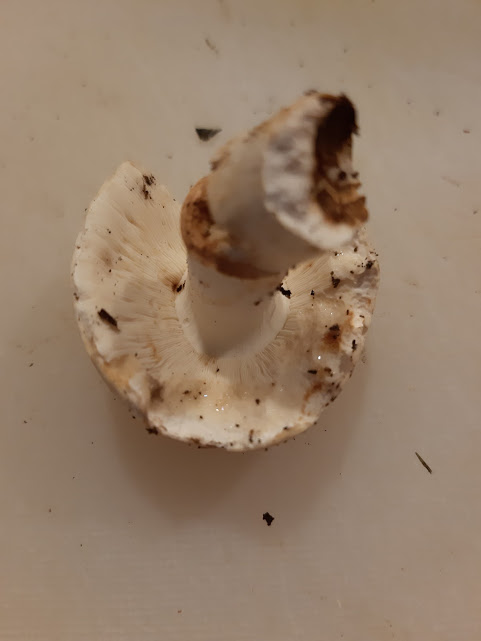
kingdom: Fungi
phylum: Basidiomycota
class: Agaricomycetes
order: Russulales
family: Russulaceae
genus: Russula
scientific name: Russula
